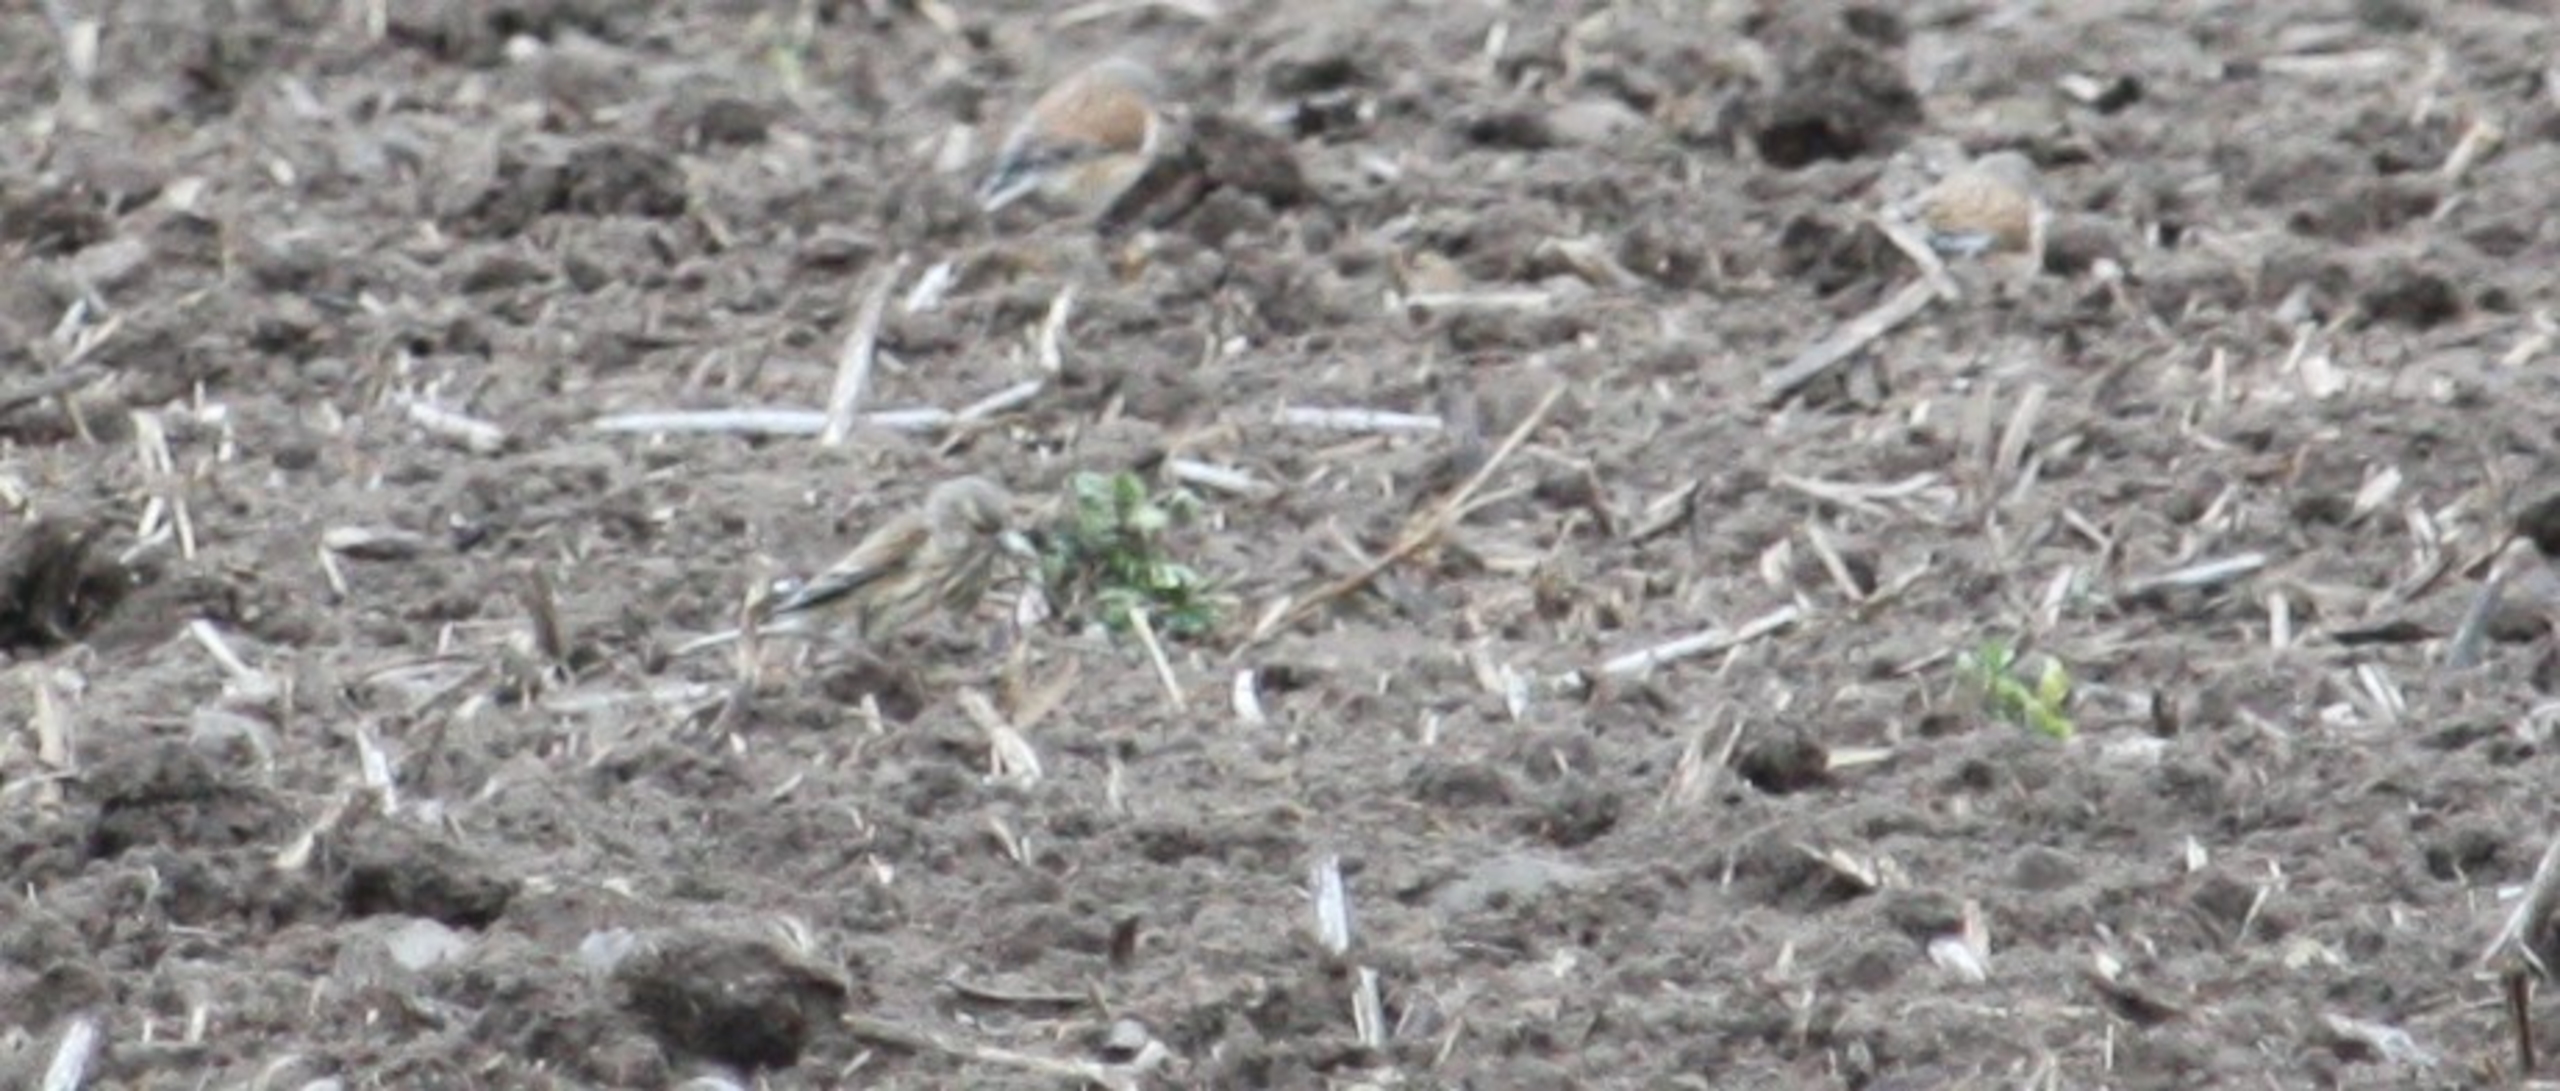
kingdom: Animalia
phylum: Chordata
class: Aves
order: Passeriformes
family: Fringillidae
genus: Linaria
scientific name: Linaria cannabina
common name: Tornirisk
